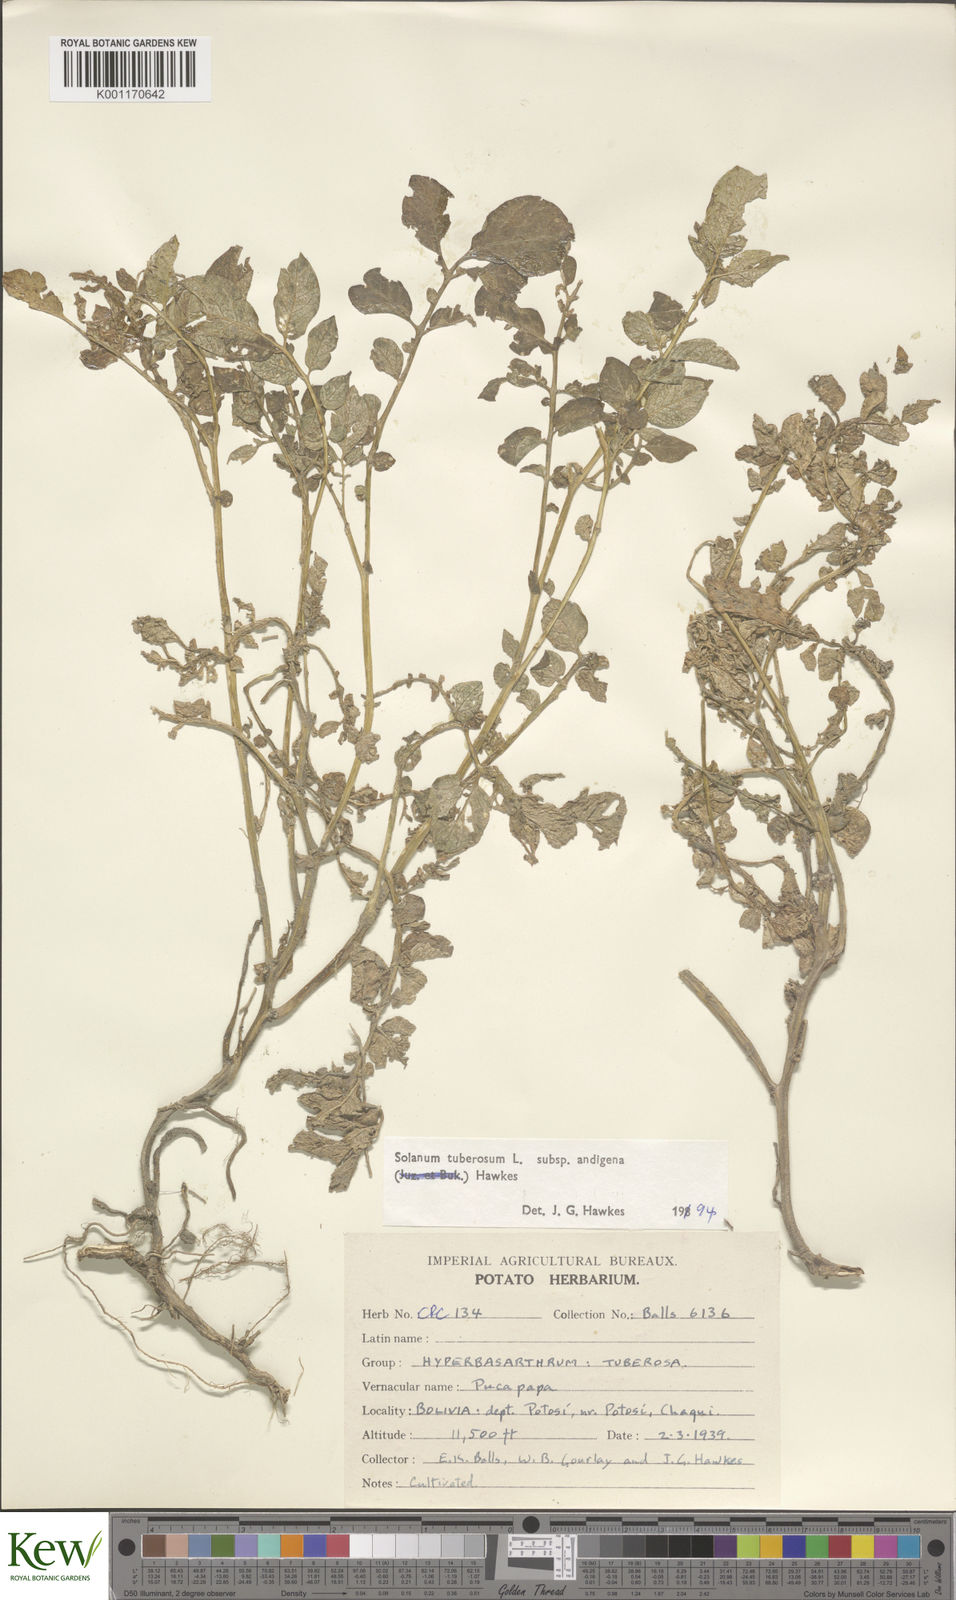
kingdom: Plantae
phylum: Tracheophyta
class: Magnoliopsida
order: Solanales
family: Solanaceae
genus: Solanum
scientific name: Solanum tuberosum
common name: Potato
